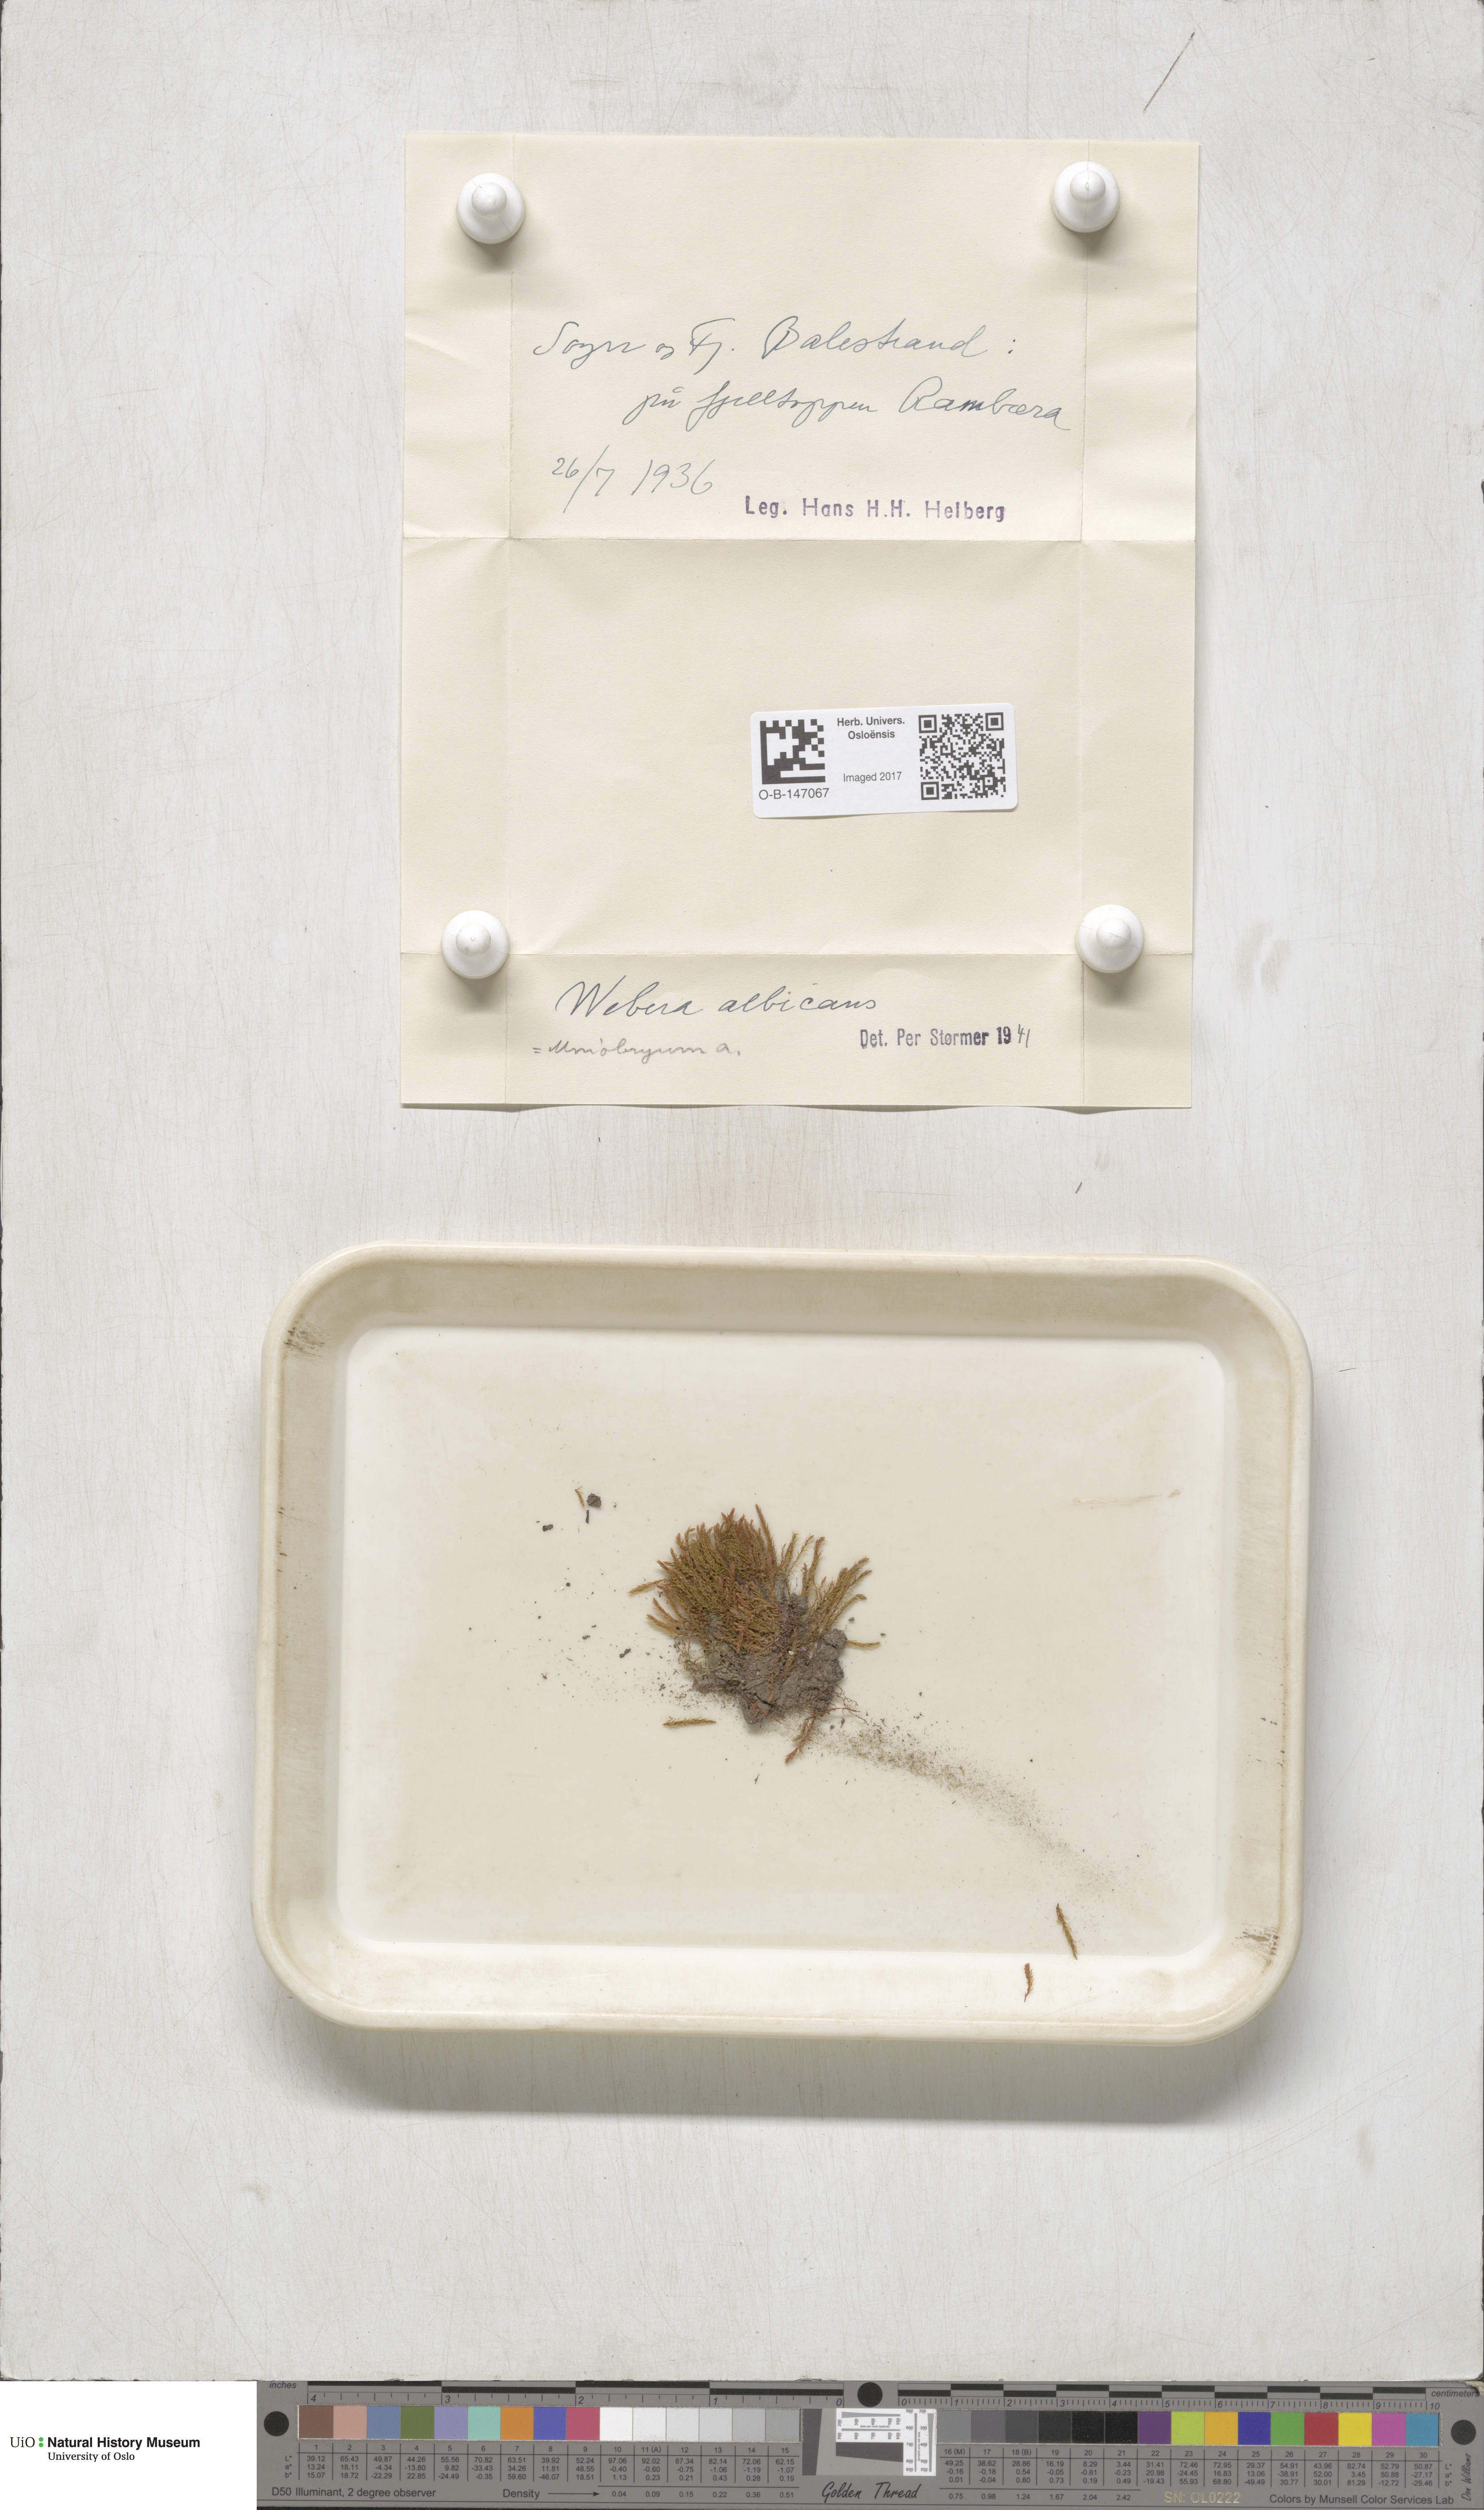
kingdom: Plantae
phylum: Bryophyta
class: Bryopsida
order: Bryales
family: Mniaceae
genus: Pohlia
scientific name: Pohlia wahlenbergii
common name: Wahlenberg's nodding moss
